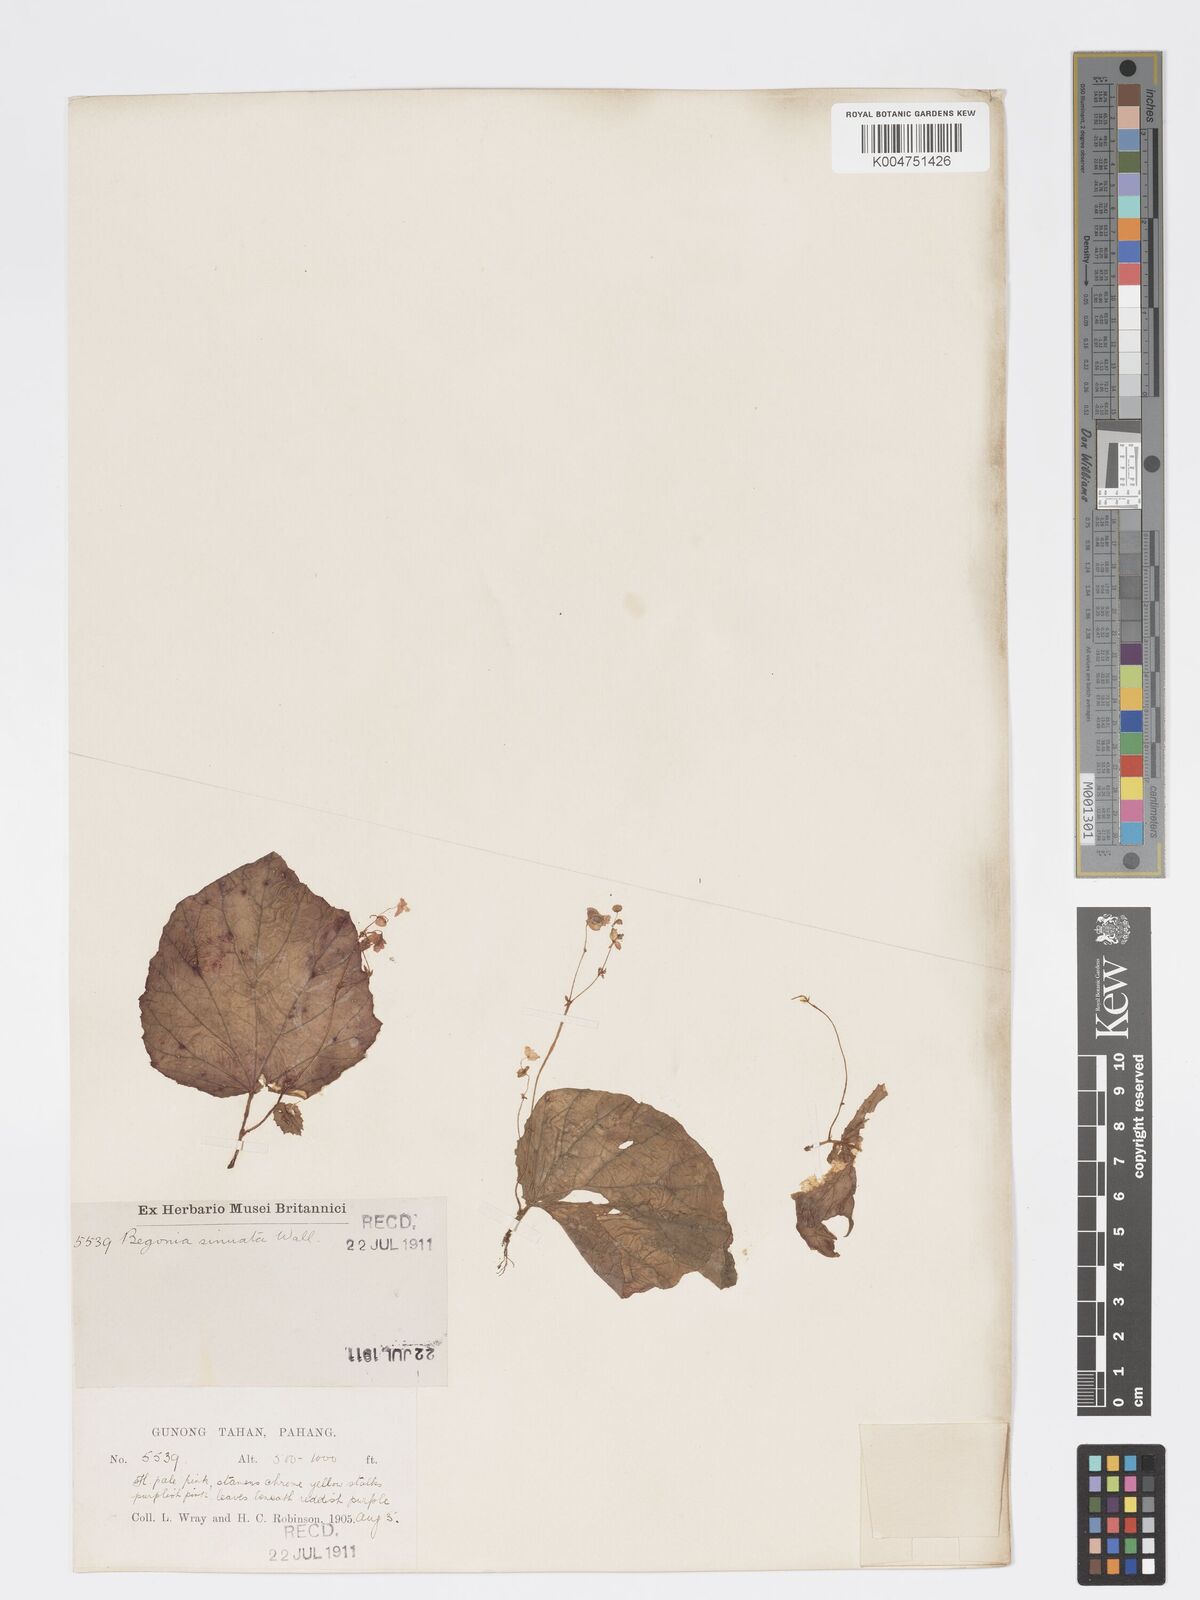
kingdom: Plantae
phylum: Tracheophyta
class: Magnoliopsida
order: Cucurbitales
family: Begoniaceae
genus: Begonia
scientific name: Begonia
